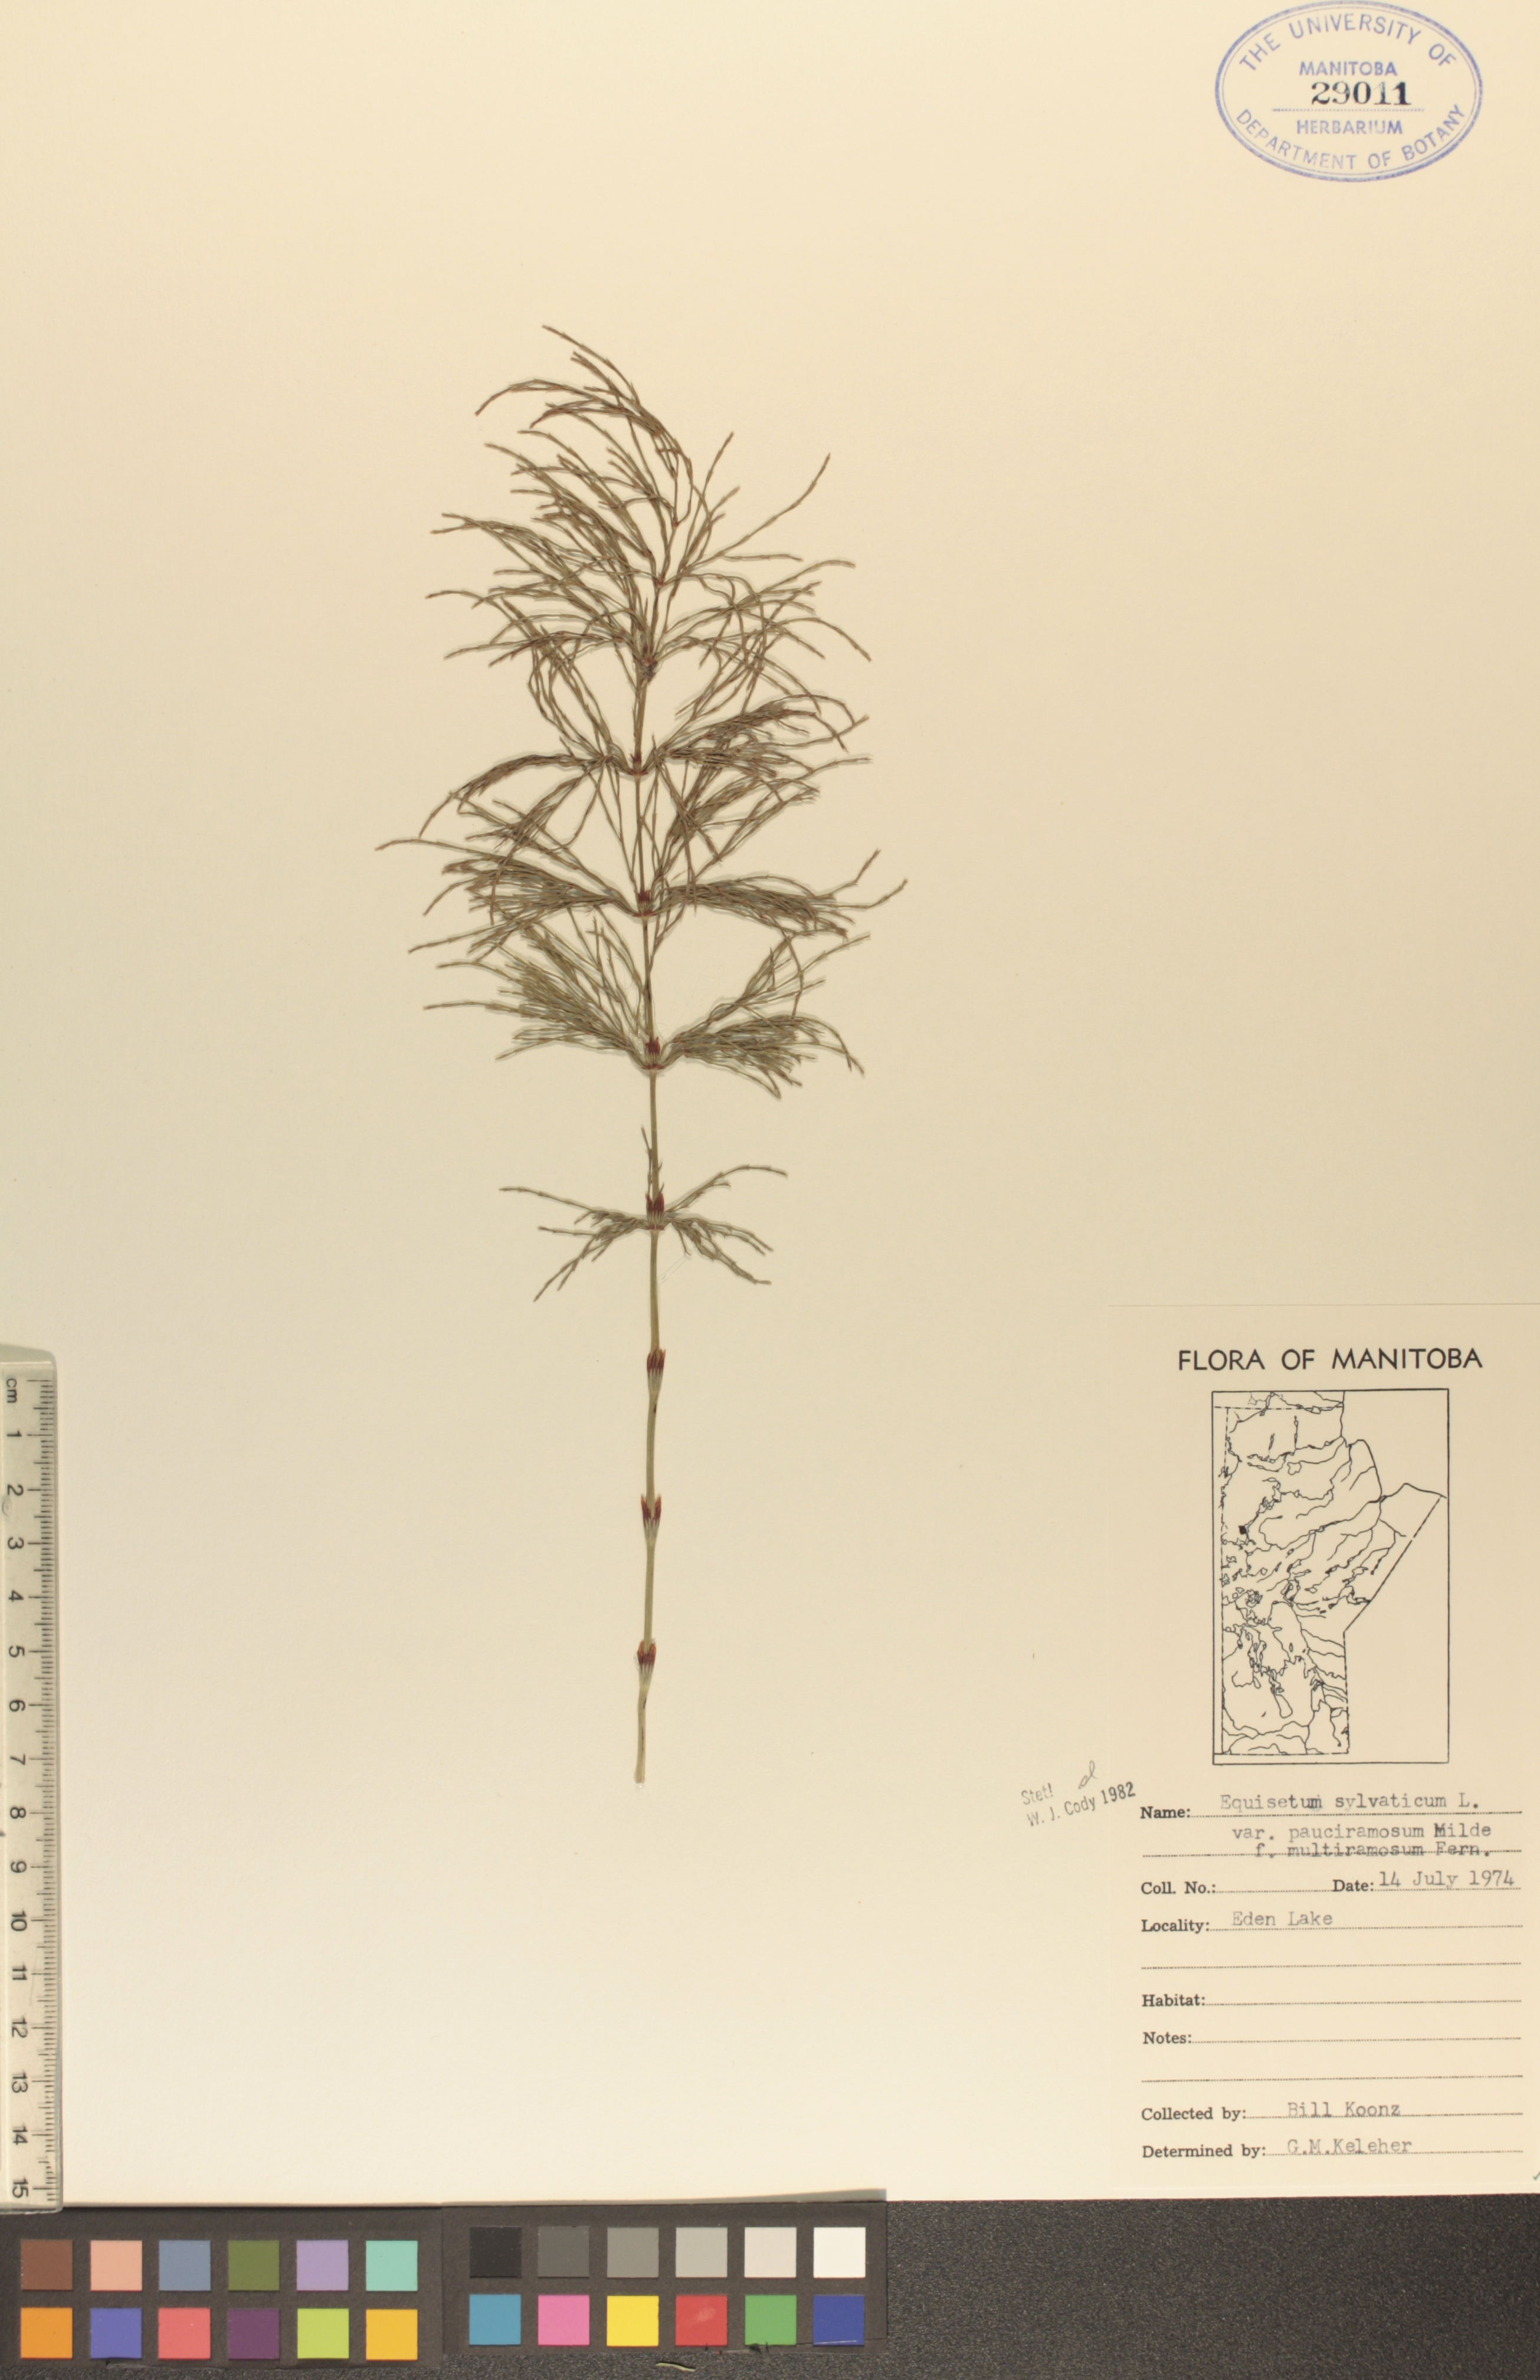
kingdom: Plantae
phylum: Tracheophyta
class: Polypodiopsida
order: Equisetales
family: Equisetaceae
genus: Equisetum
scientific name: Equisetum sylvaticum
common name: Wood horsetail
